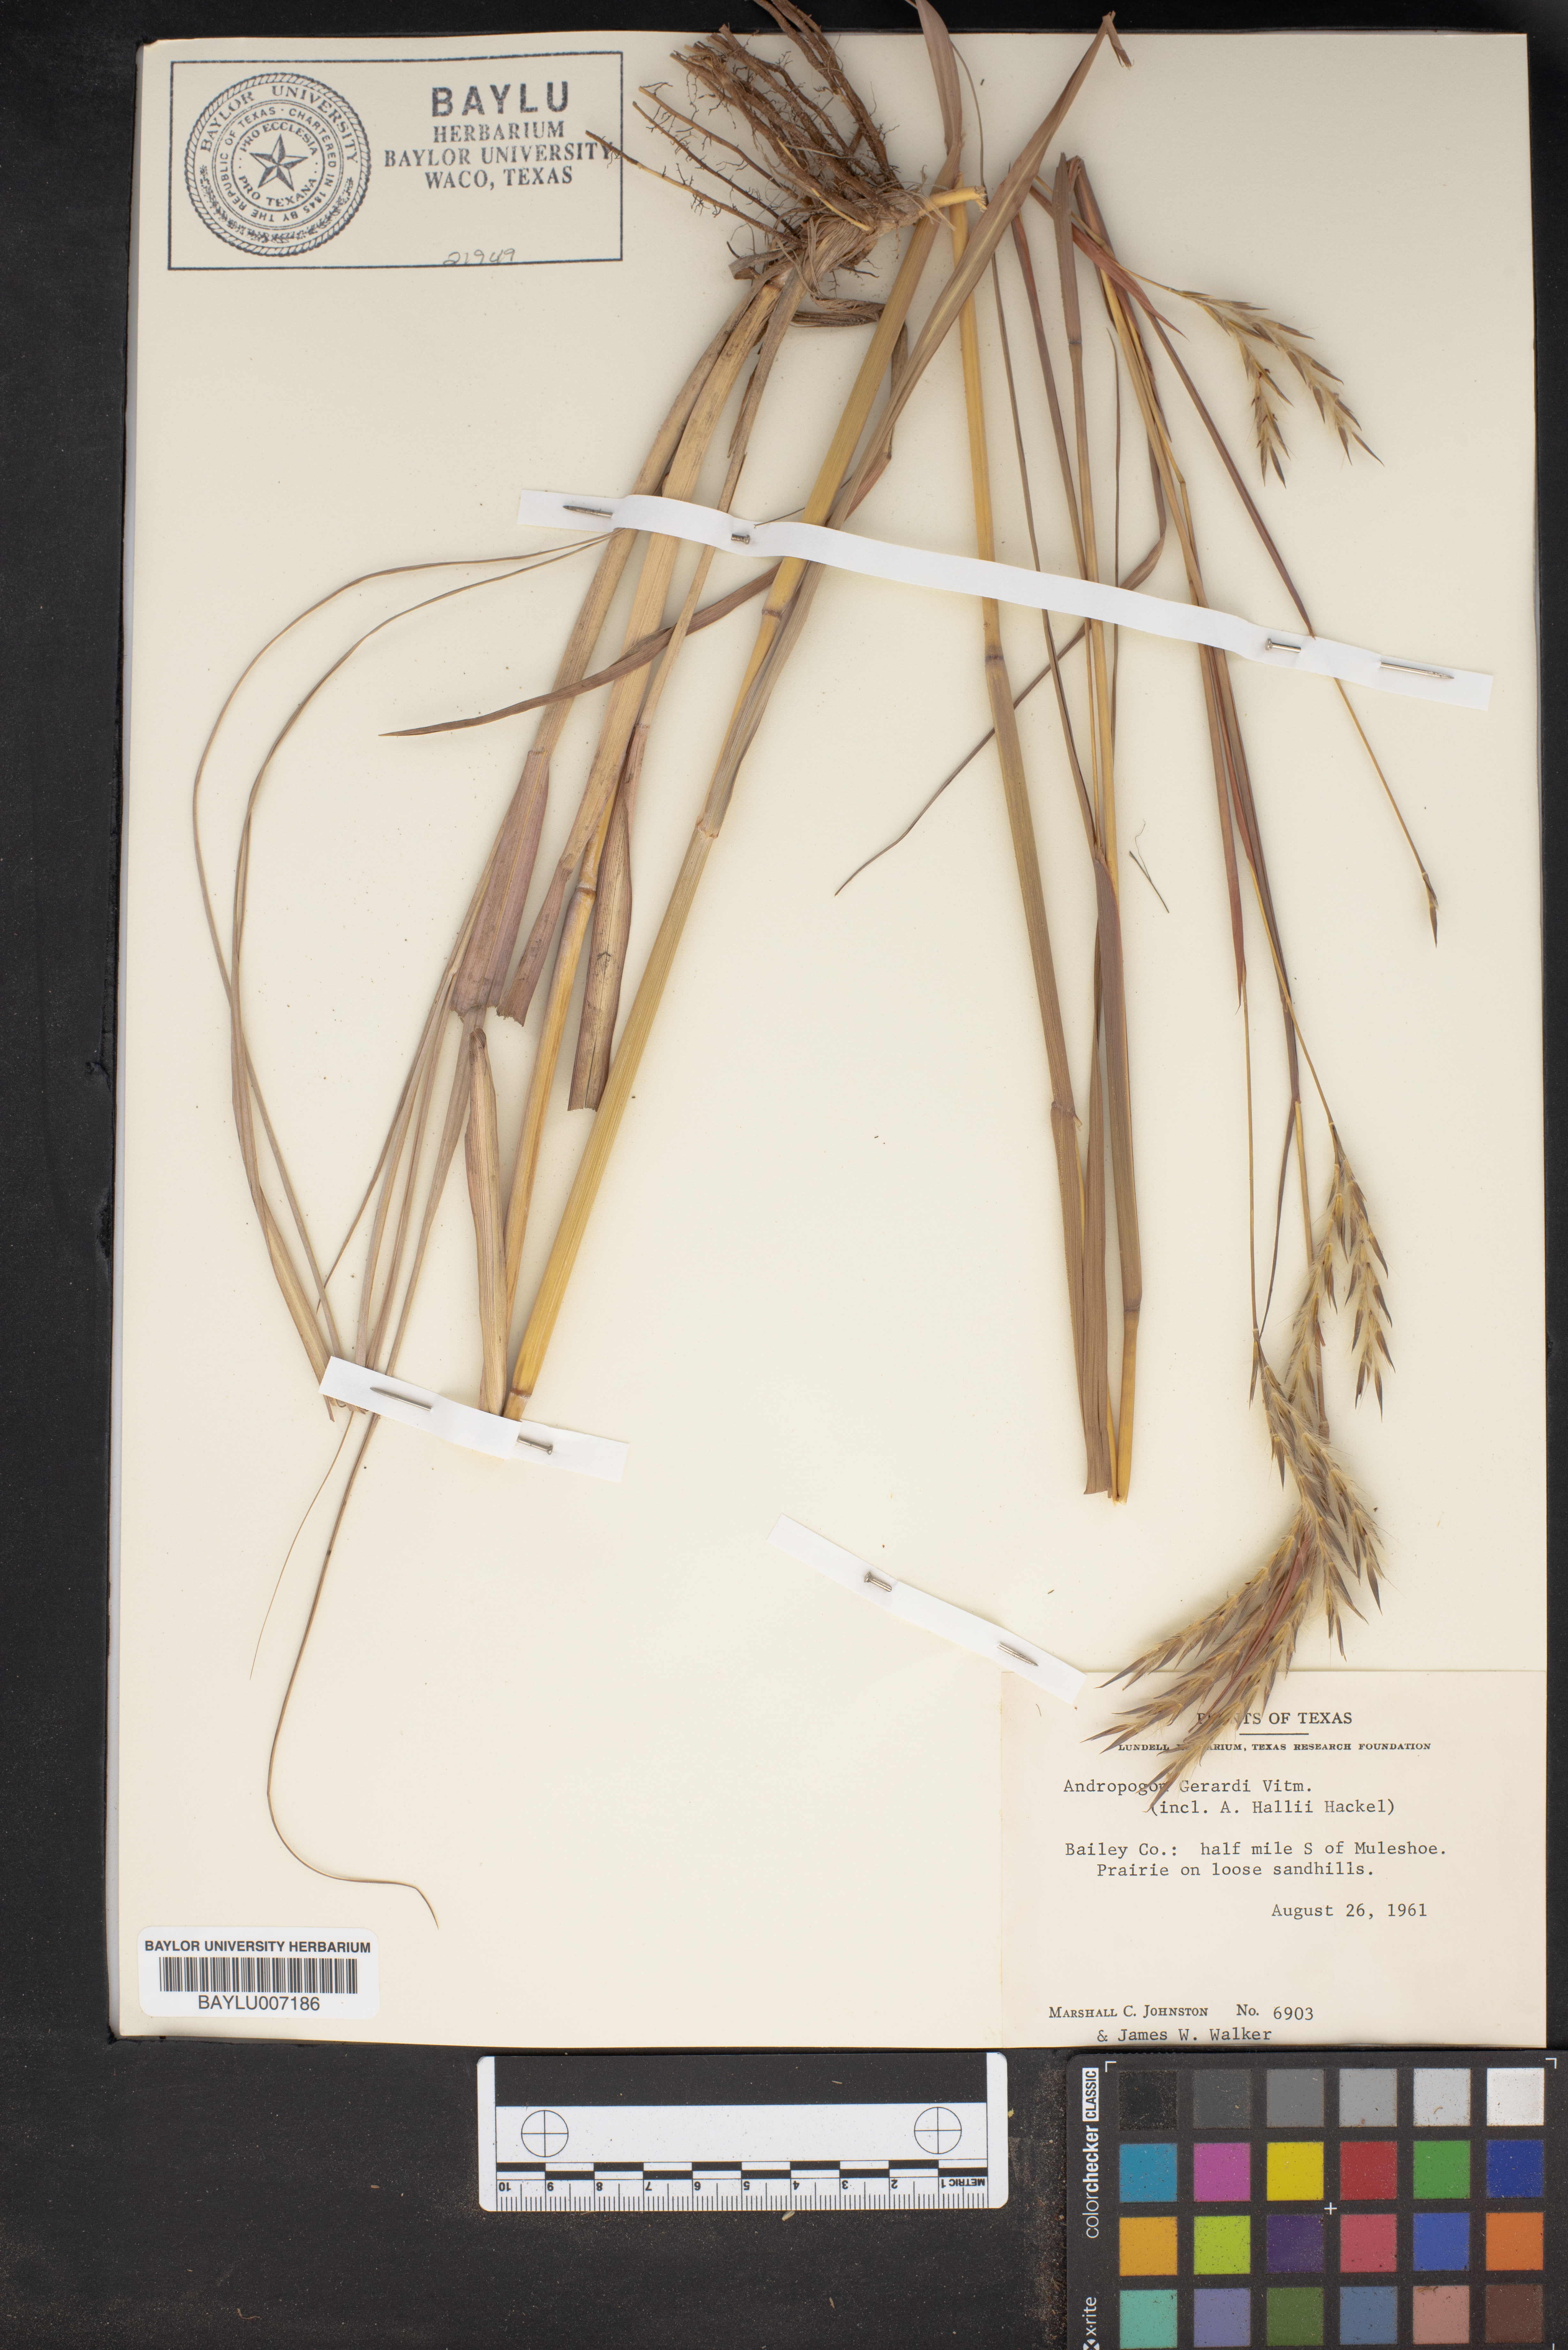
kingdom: Plantae
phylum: Tracheophyta
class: Liliopsida
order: Poales
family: Poaceae
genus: Andropogon
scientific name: Andropogon gerardi
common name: Big bluestem
